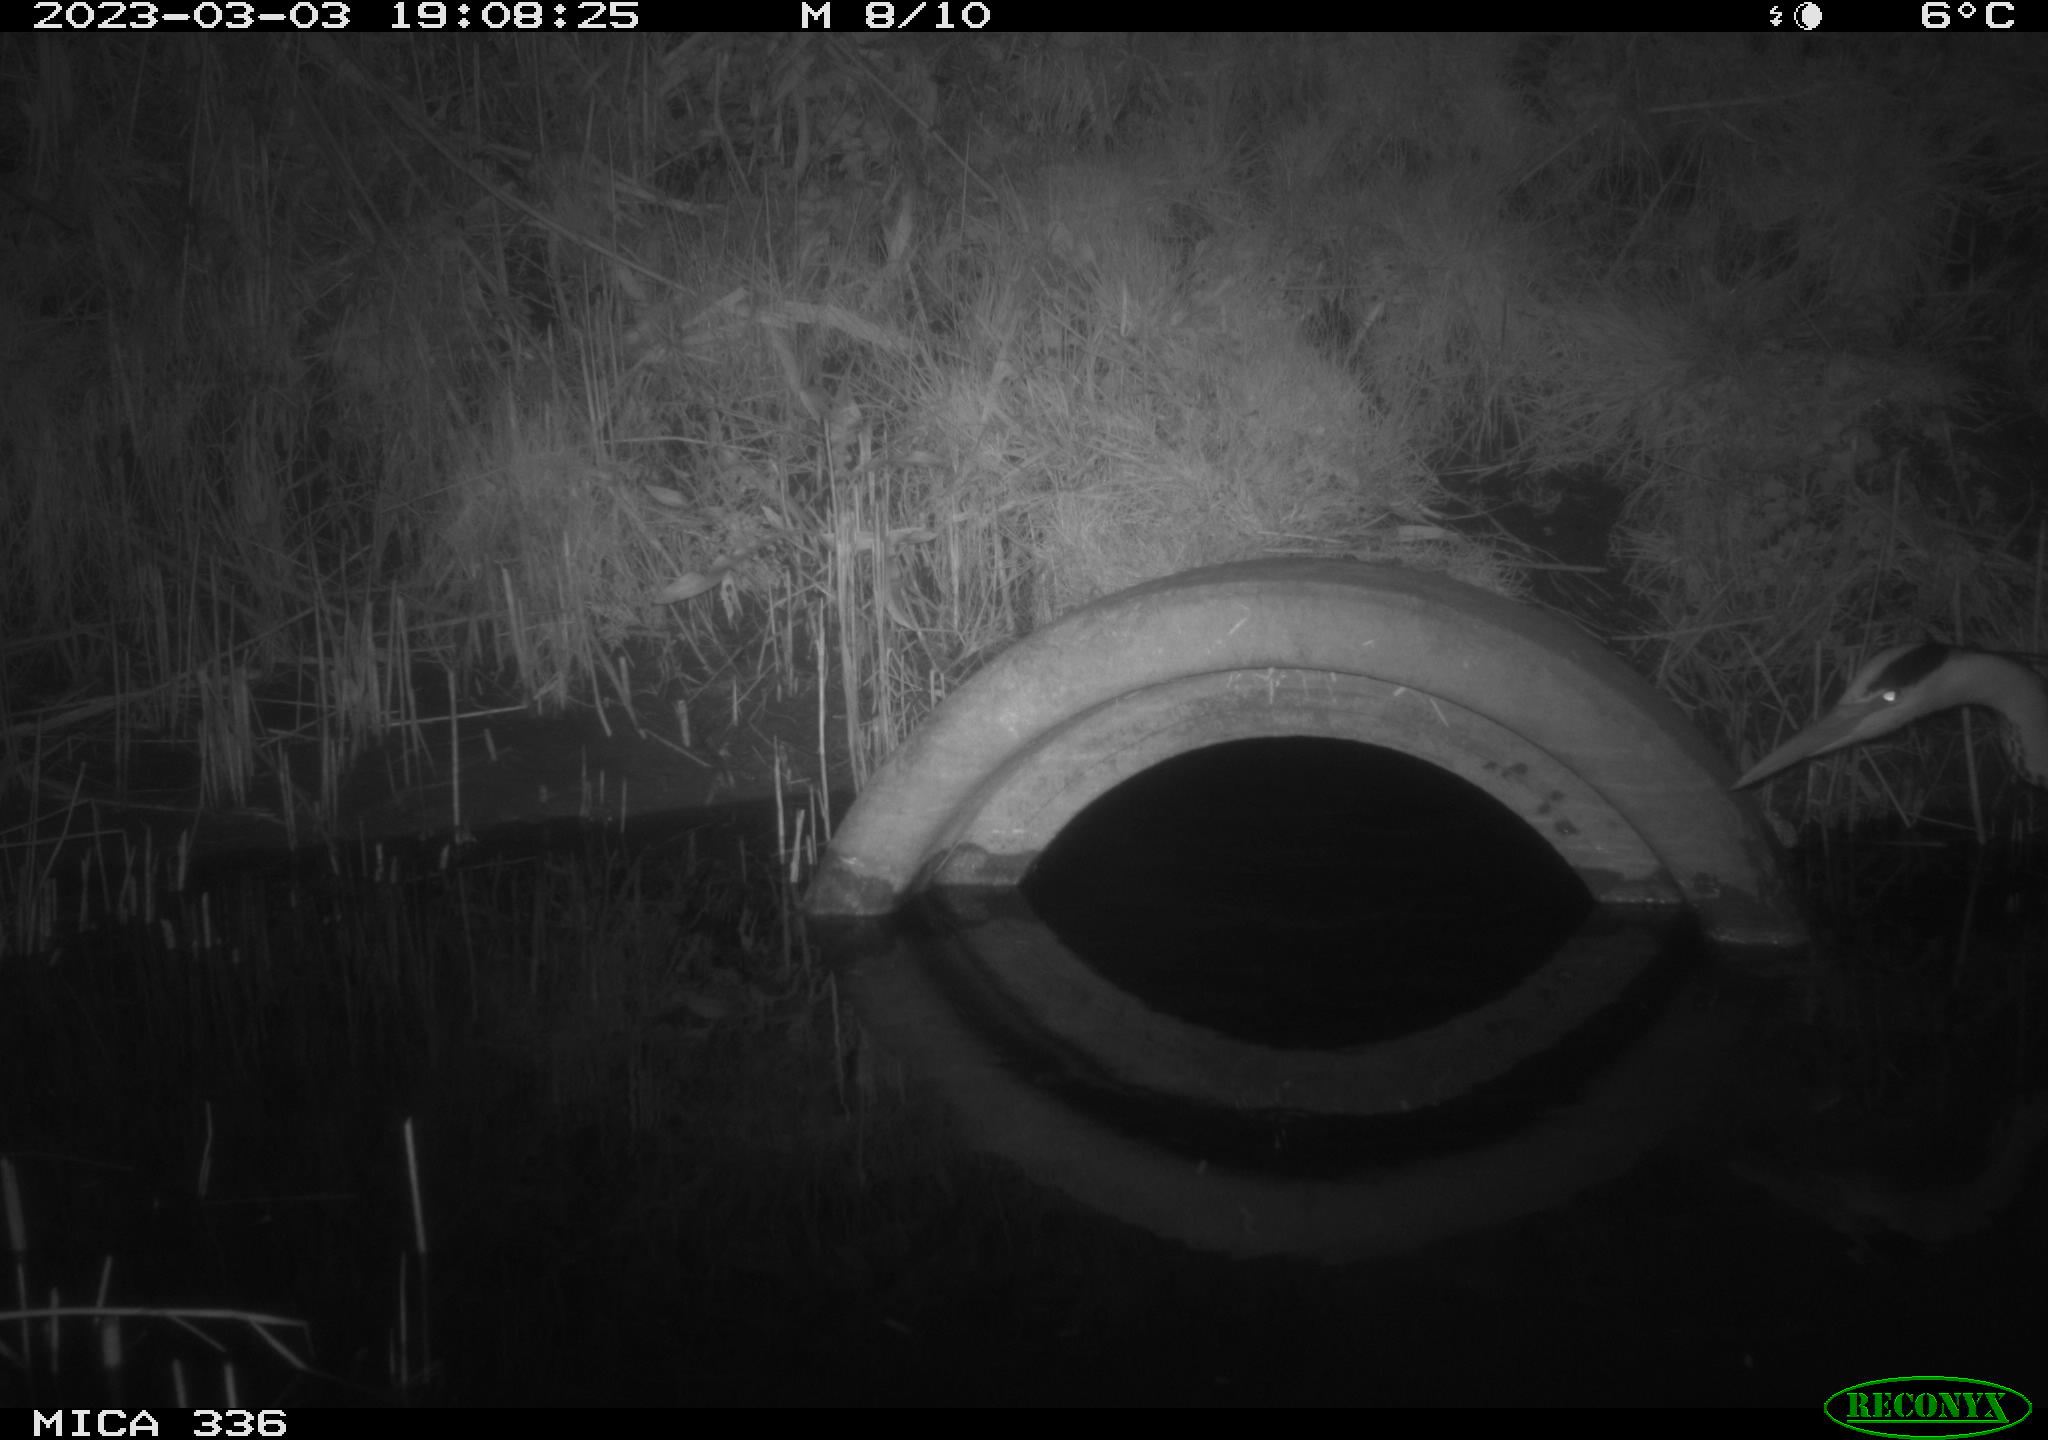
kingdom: Animalia
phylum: Chordata
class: Aves
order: Pelecaniformes
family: Ardeidae
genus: Ardea
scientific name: Ardea cinerea
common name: Grey heron
